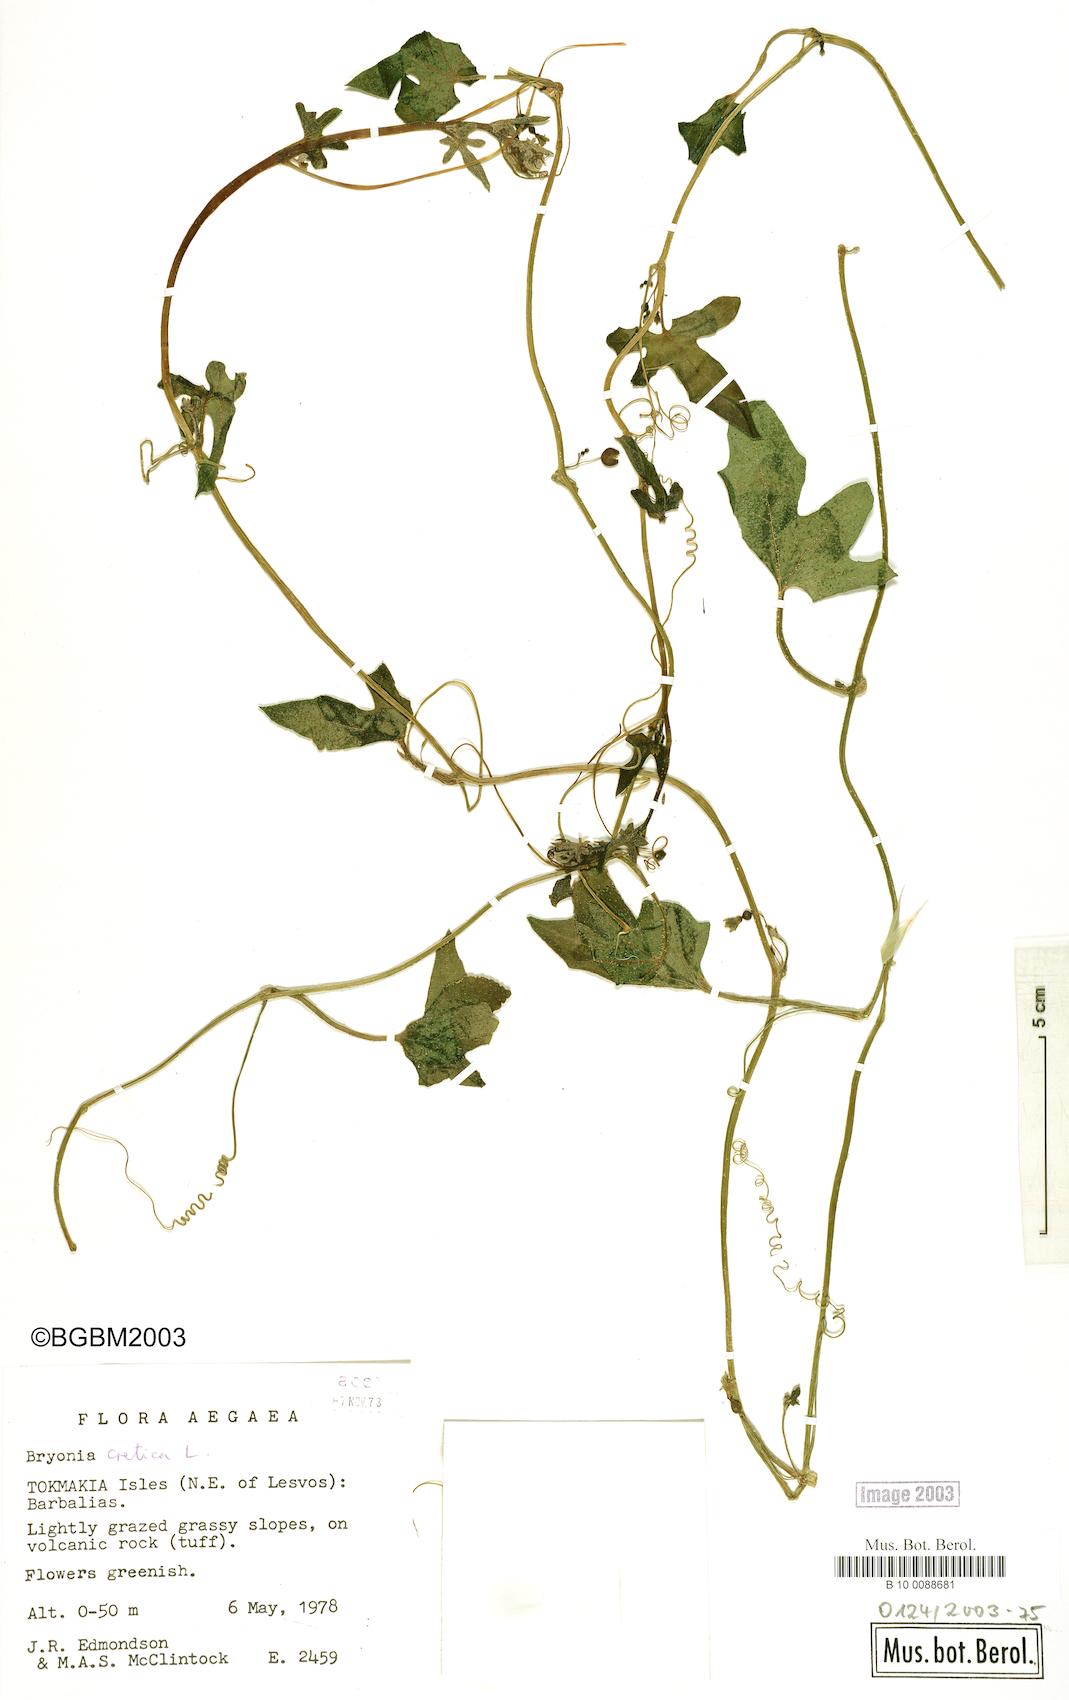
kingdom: Plantae
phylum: Tracheophyta
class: Magnoliopsida
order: Cucurbitales
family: Cucurbitaceae
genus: Bryonia
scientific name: Bryonia cretica
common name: Cretan bryony
